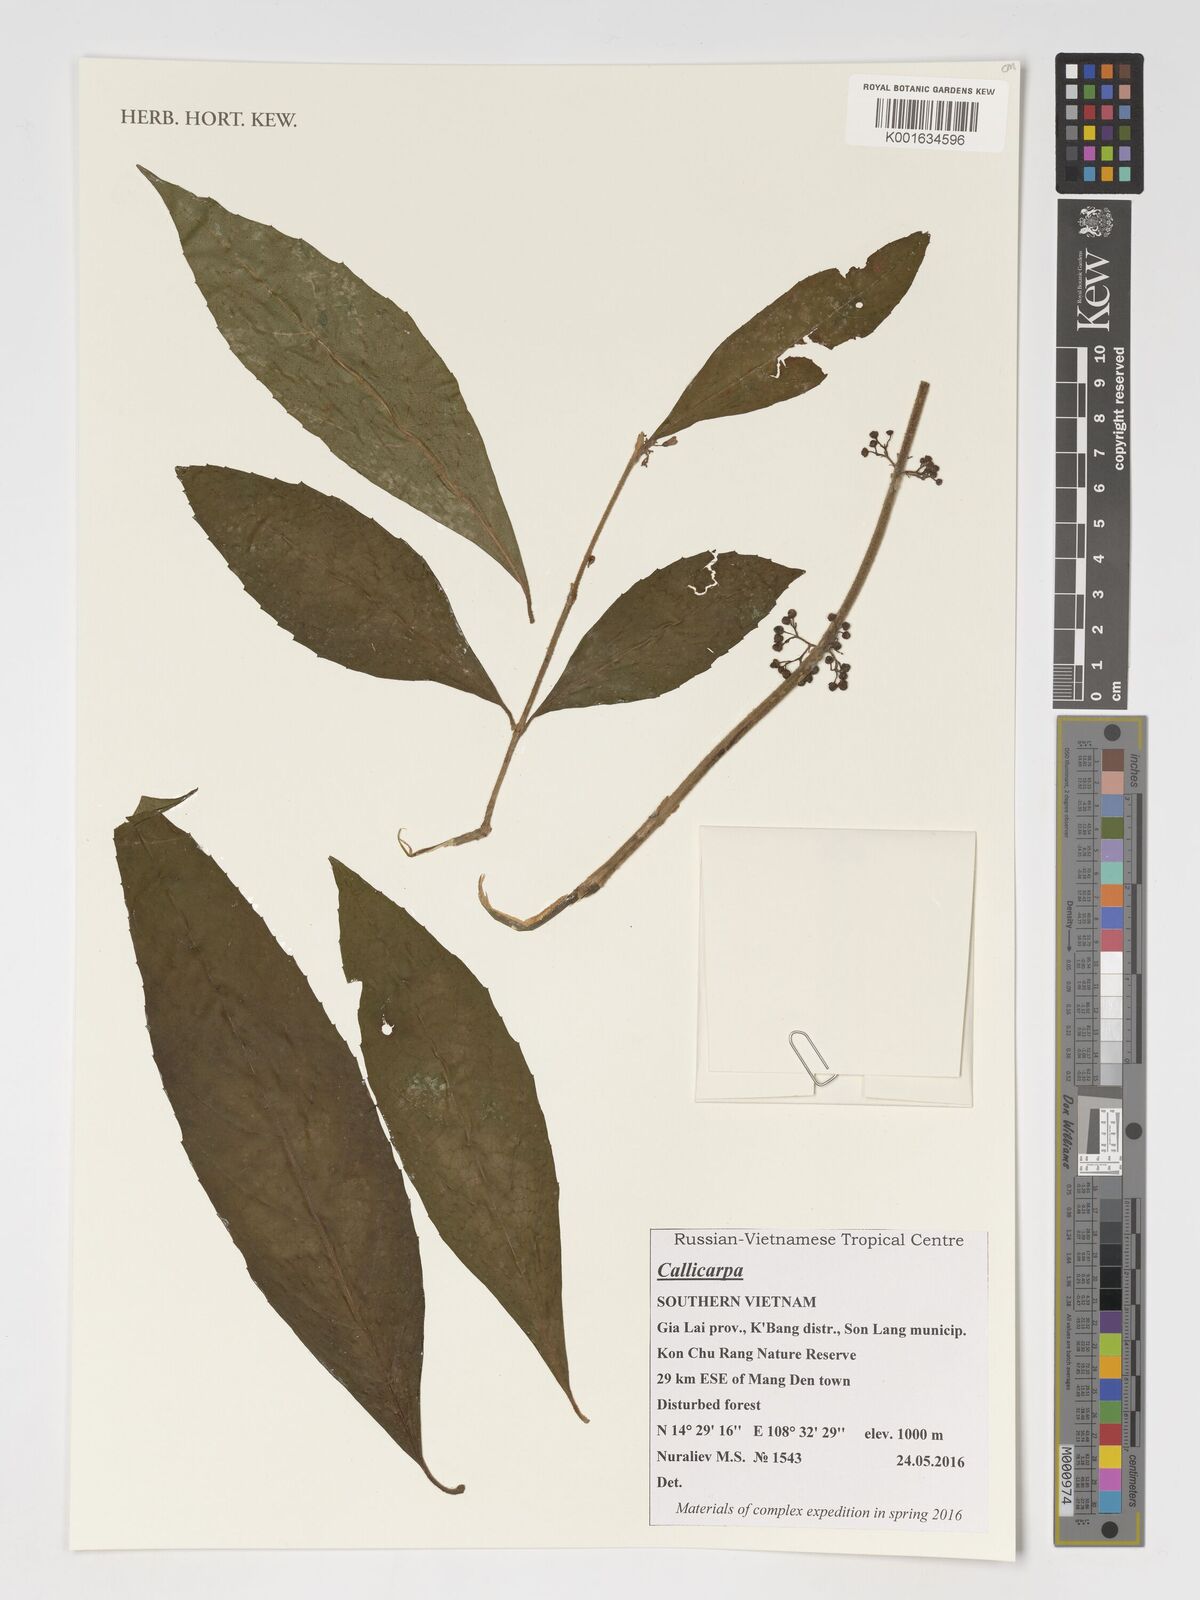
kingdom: Plantae
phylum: Tracheophyta
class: Magnoliopsida
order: Lamiales
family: Lamiaceae
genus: Callicarpa
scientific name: Callicarpa
